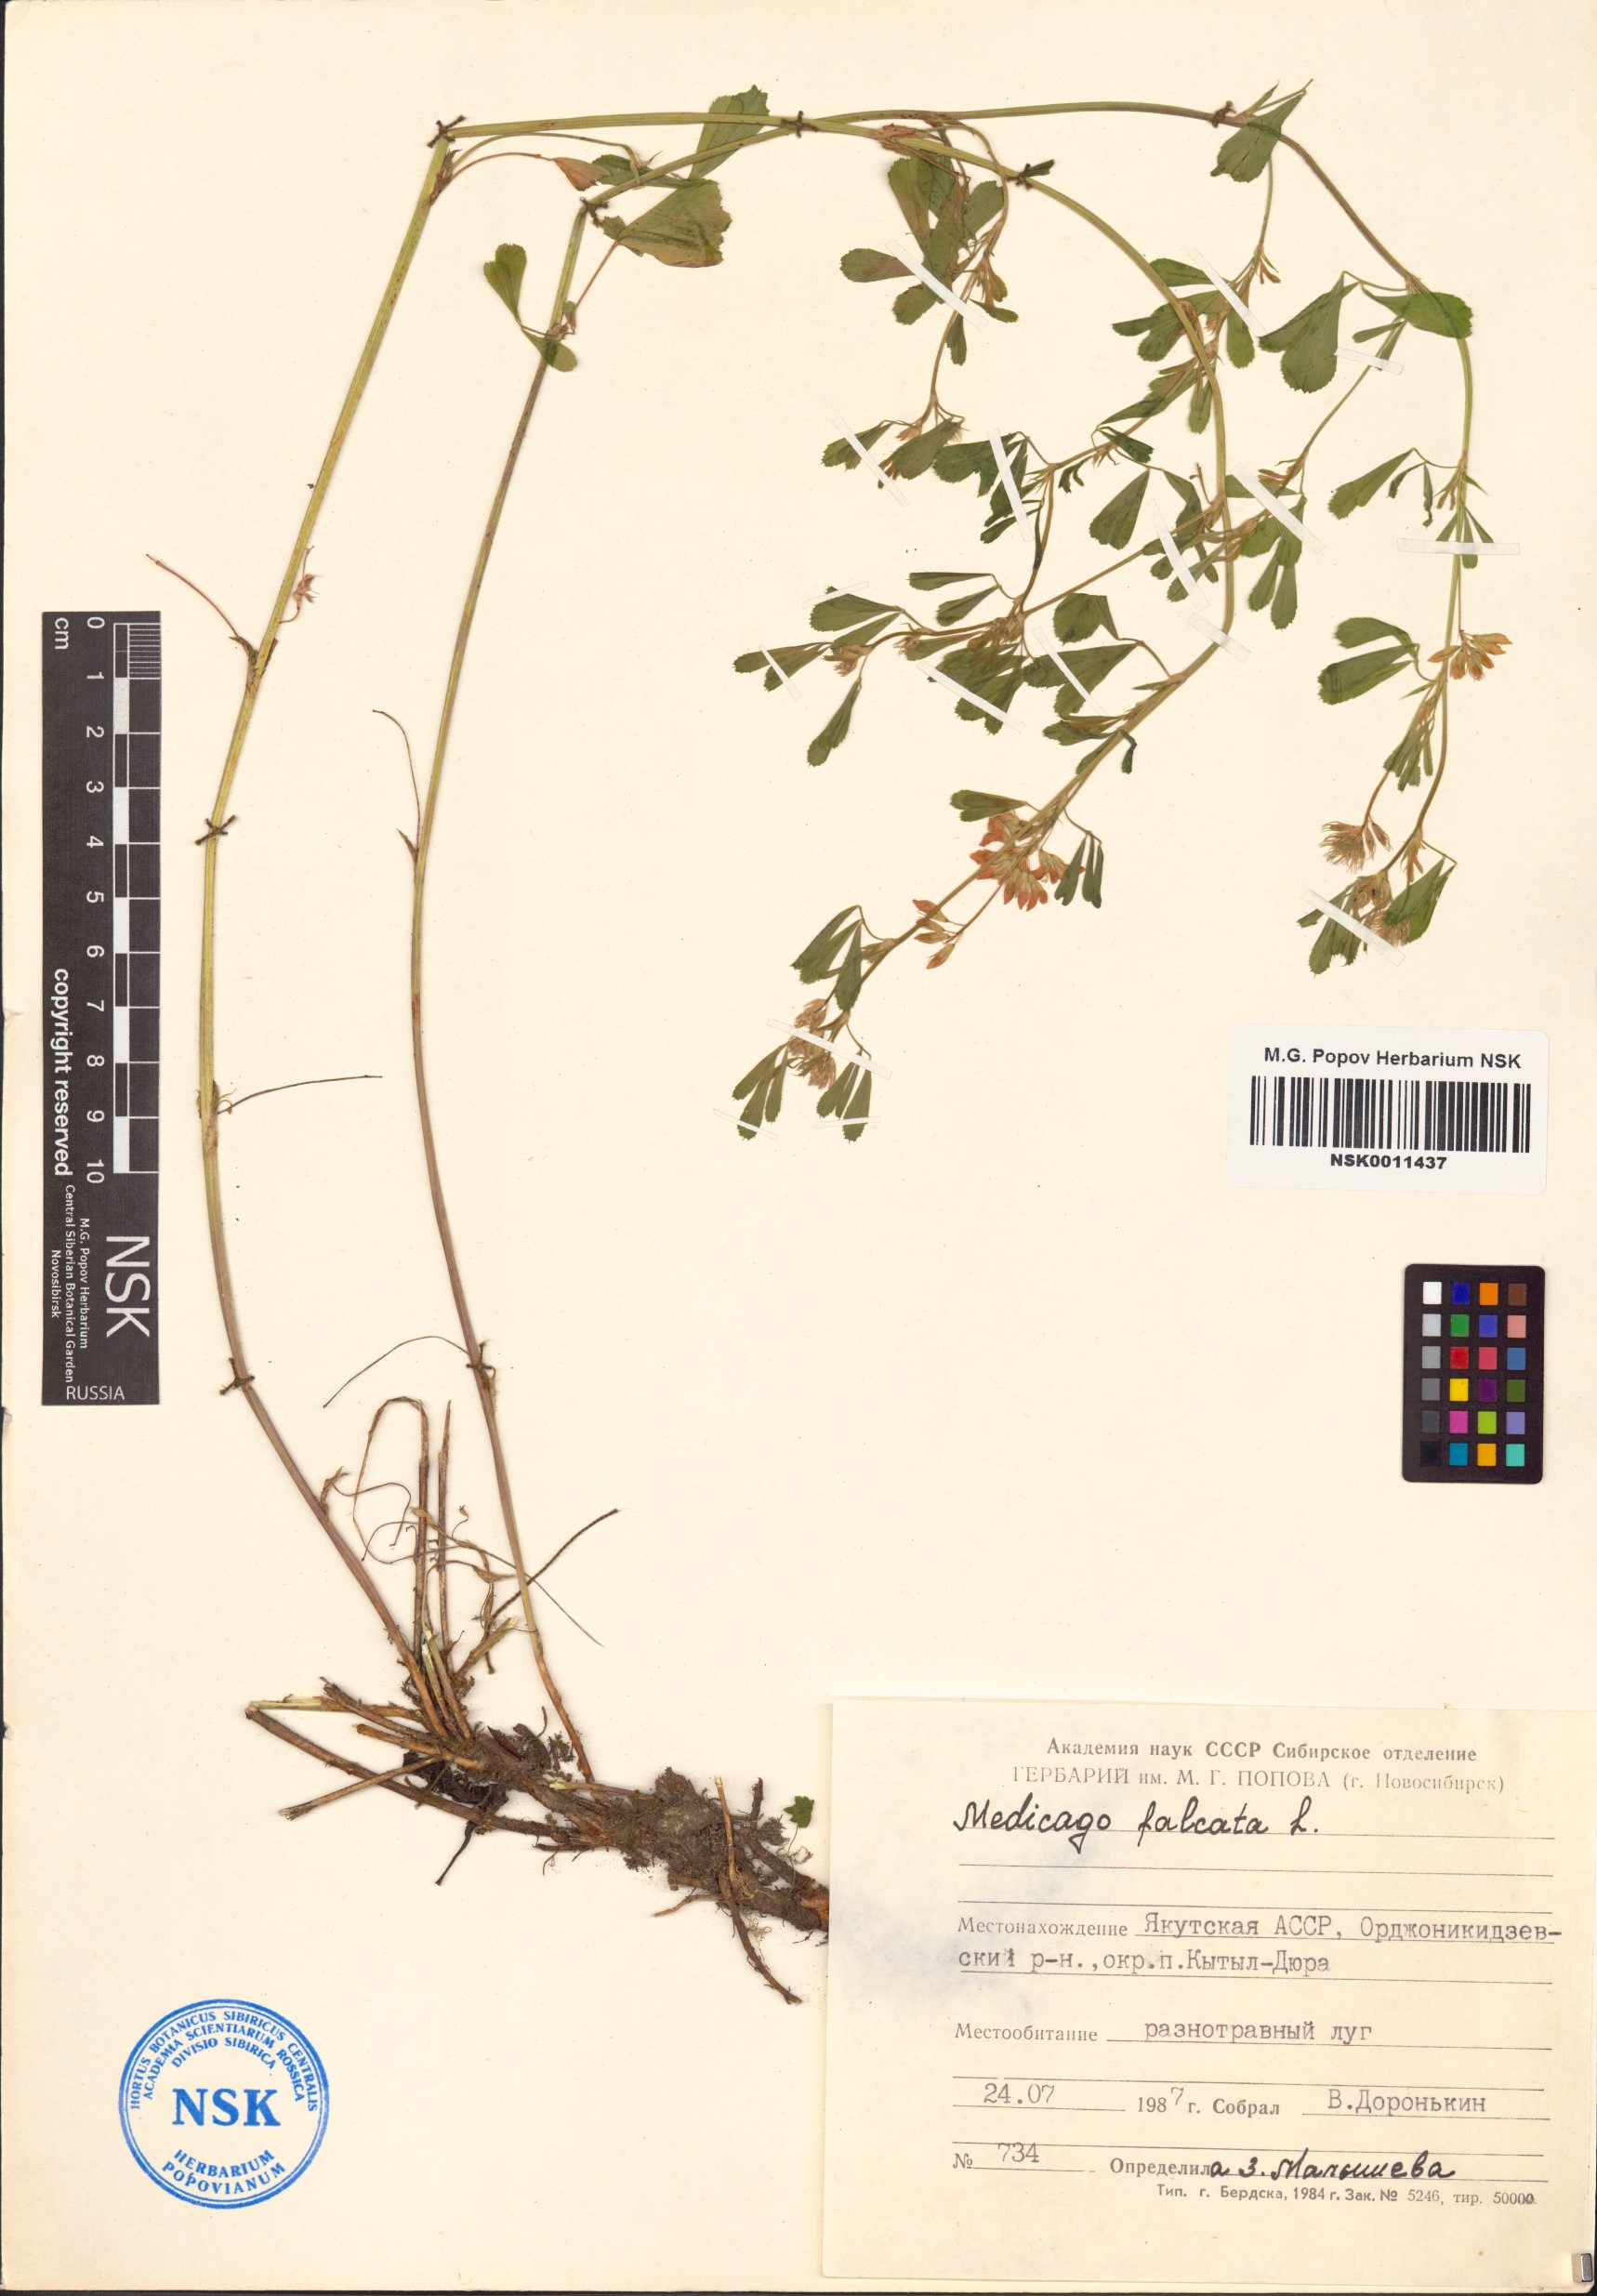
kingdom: Plantae
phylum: Tracheophyta
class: Magnoliopsida
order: Fabales
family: Fabaceae
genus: Medicago
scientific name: Medicago falcata
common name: Sickle medick
